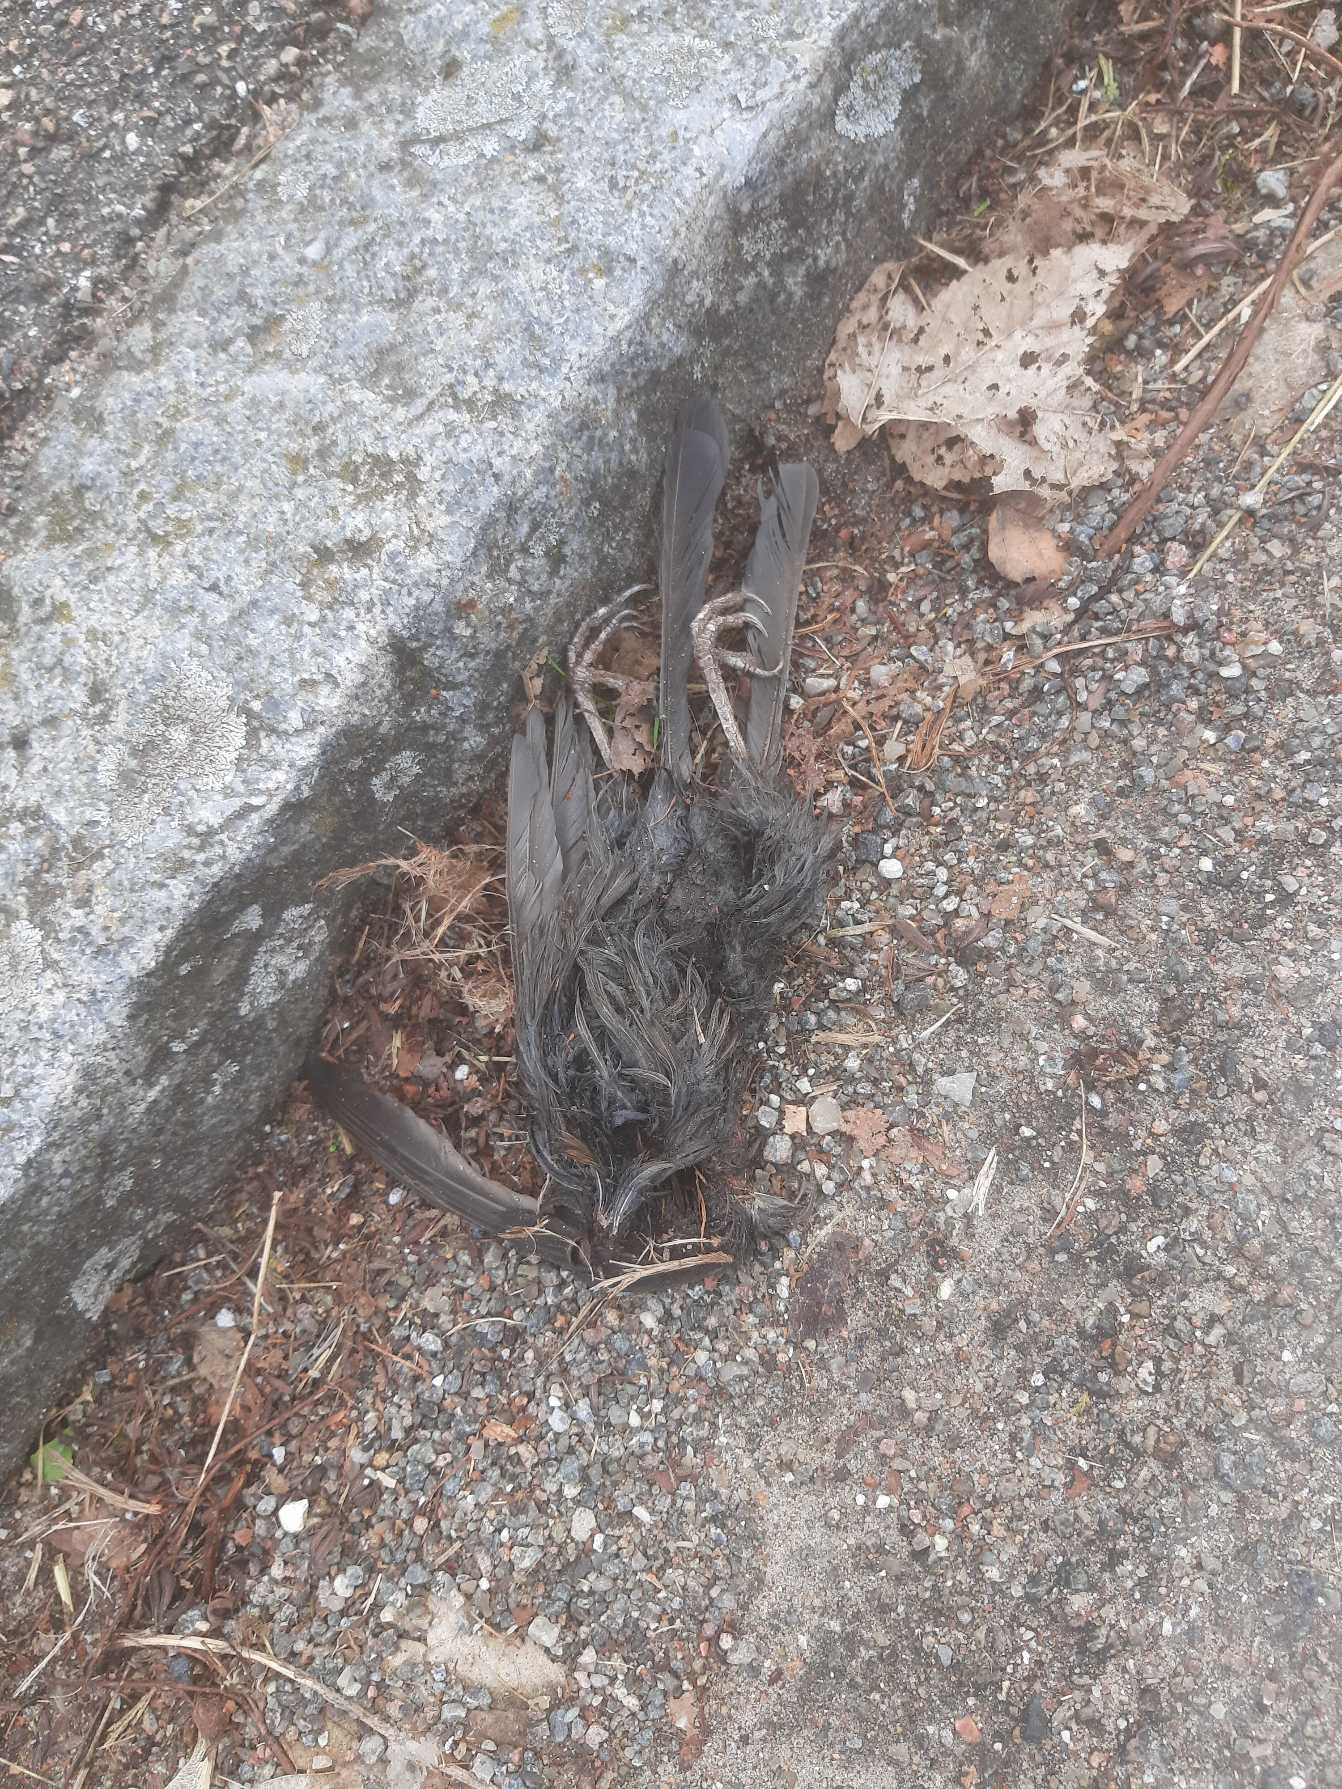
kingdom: Animalia
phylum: Chordata
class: Aves
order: Passeriformes
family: Turdidae
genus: Turdus
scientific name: Turdus merula
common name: Solsort
